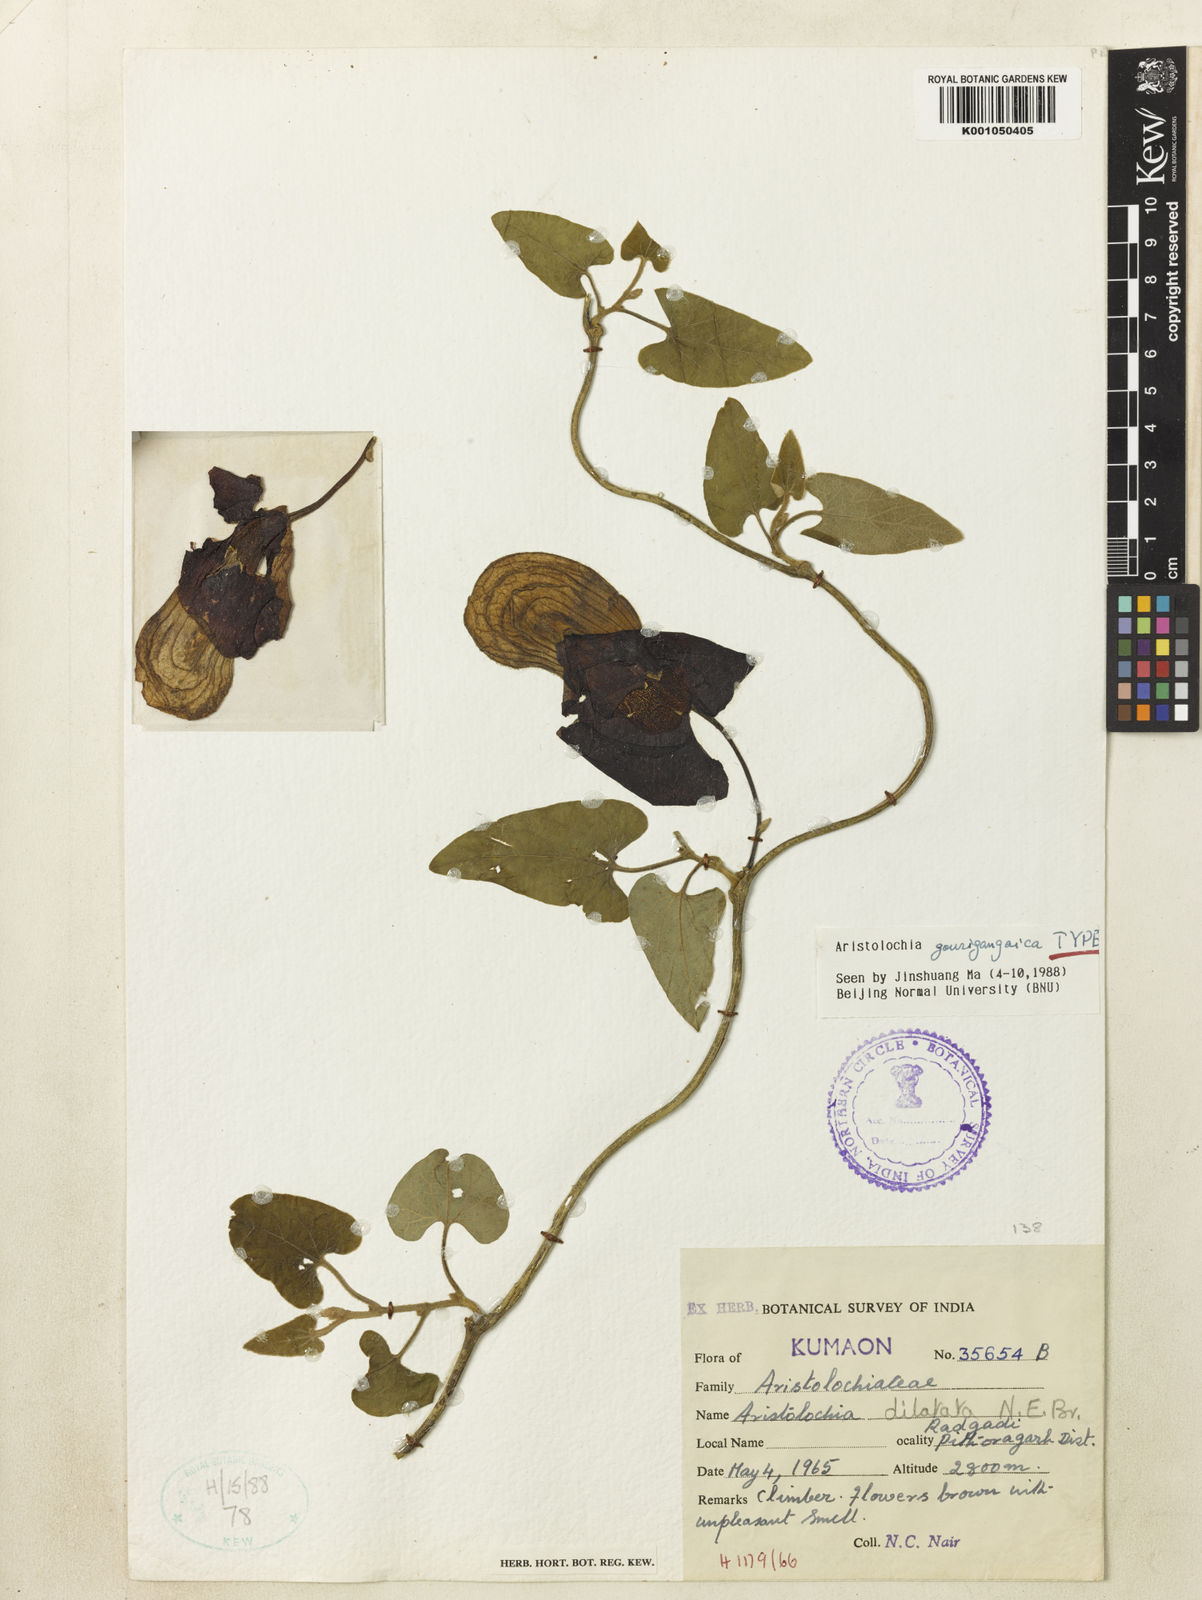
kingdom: Plantae
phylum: Tracheophyta
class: Magnoliopsida
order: Piperales
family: Aristolochiaceae
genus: Isotrema
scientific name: Isotrema dilatatum
